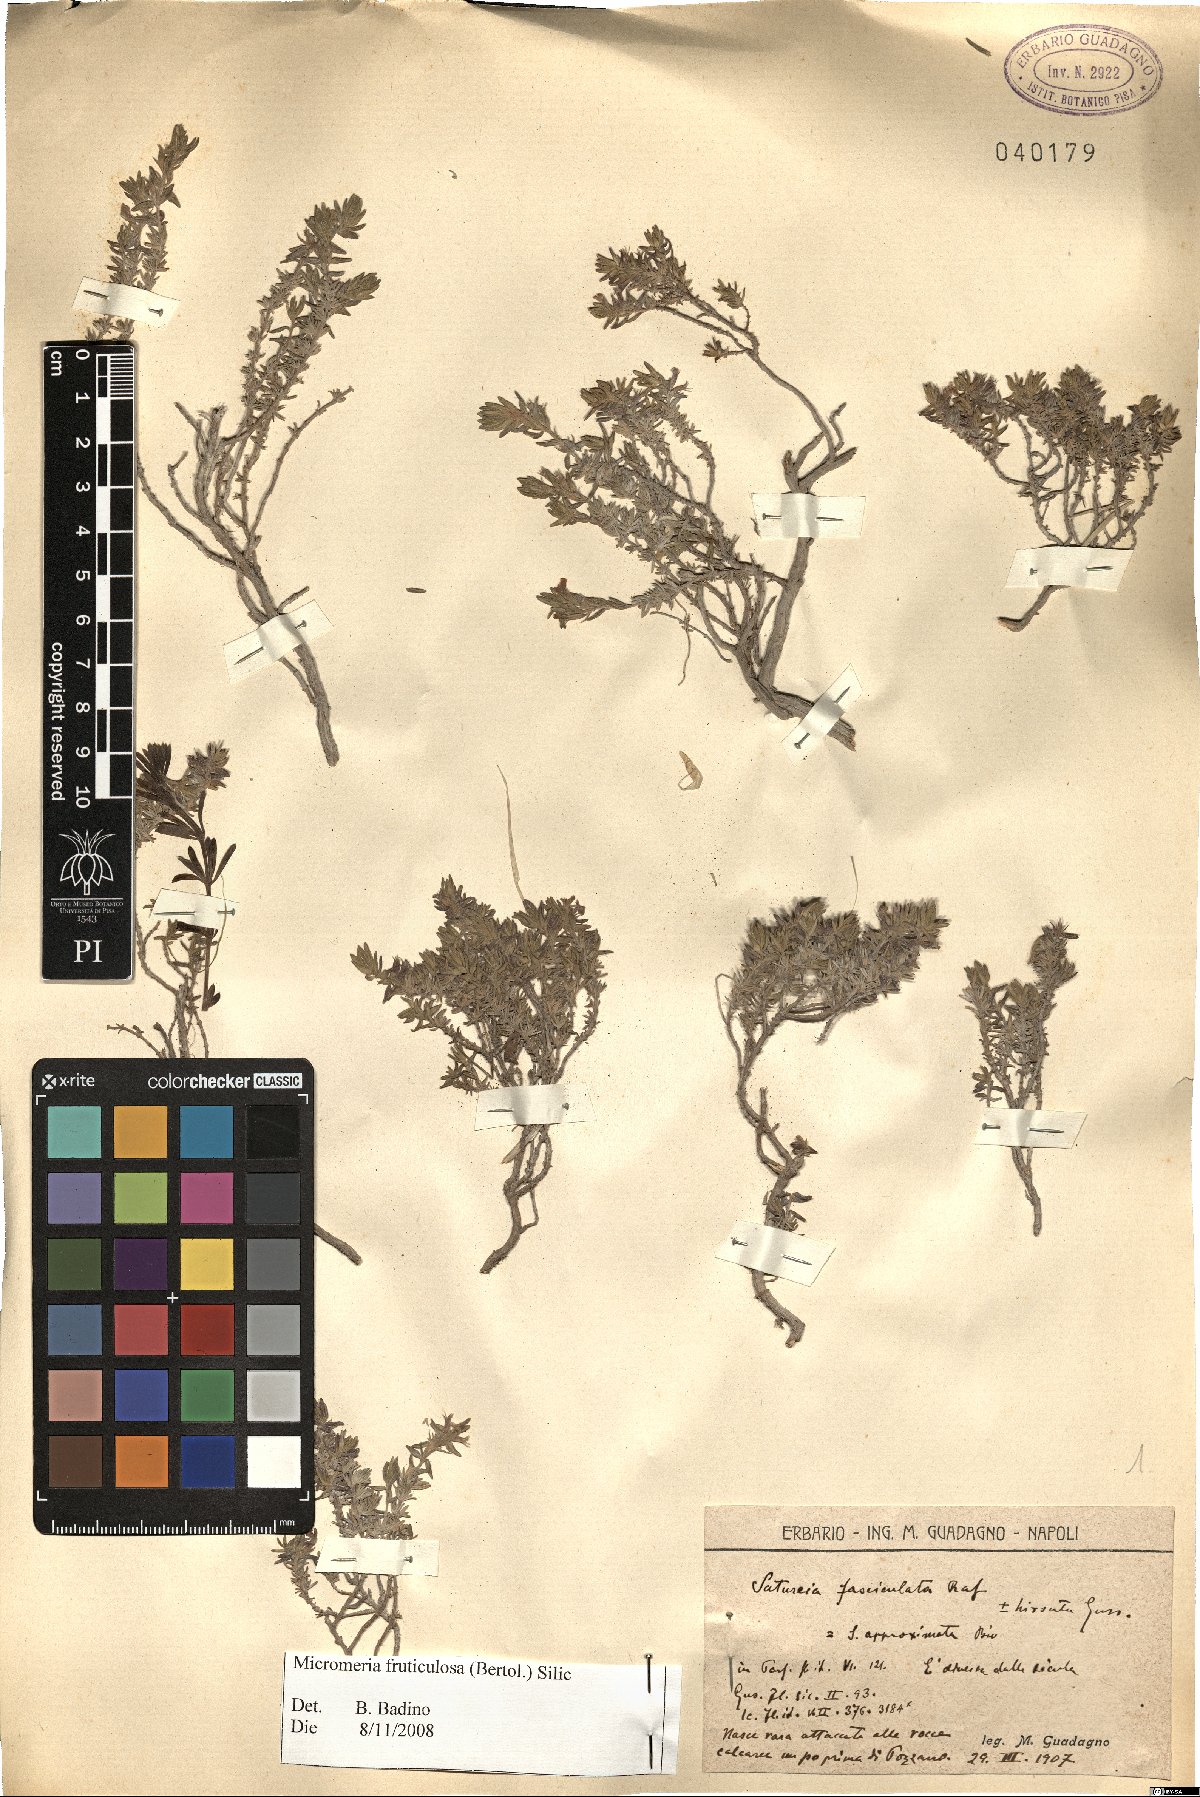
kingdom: Plantae
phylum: Tracheophyta
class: Magnoliopsida
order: Lamiales
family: Lamiaceae
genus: Micromeria
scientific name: Micromeria graeca
